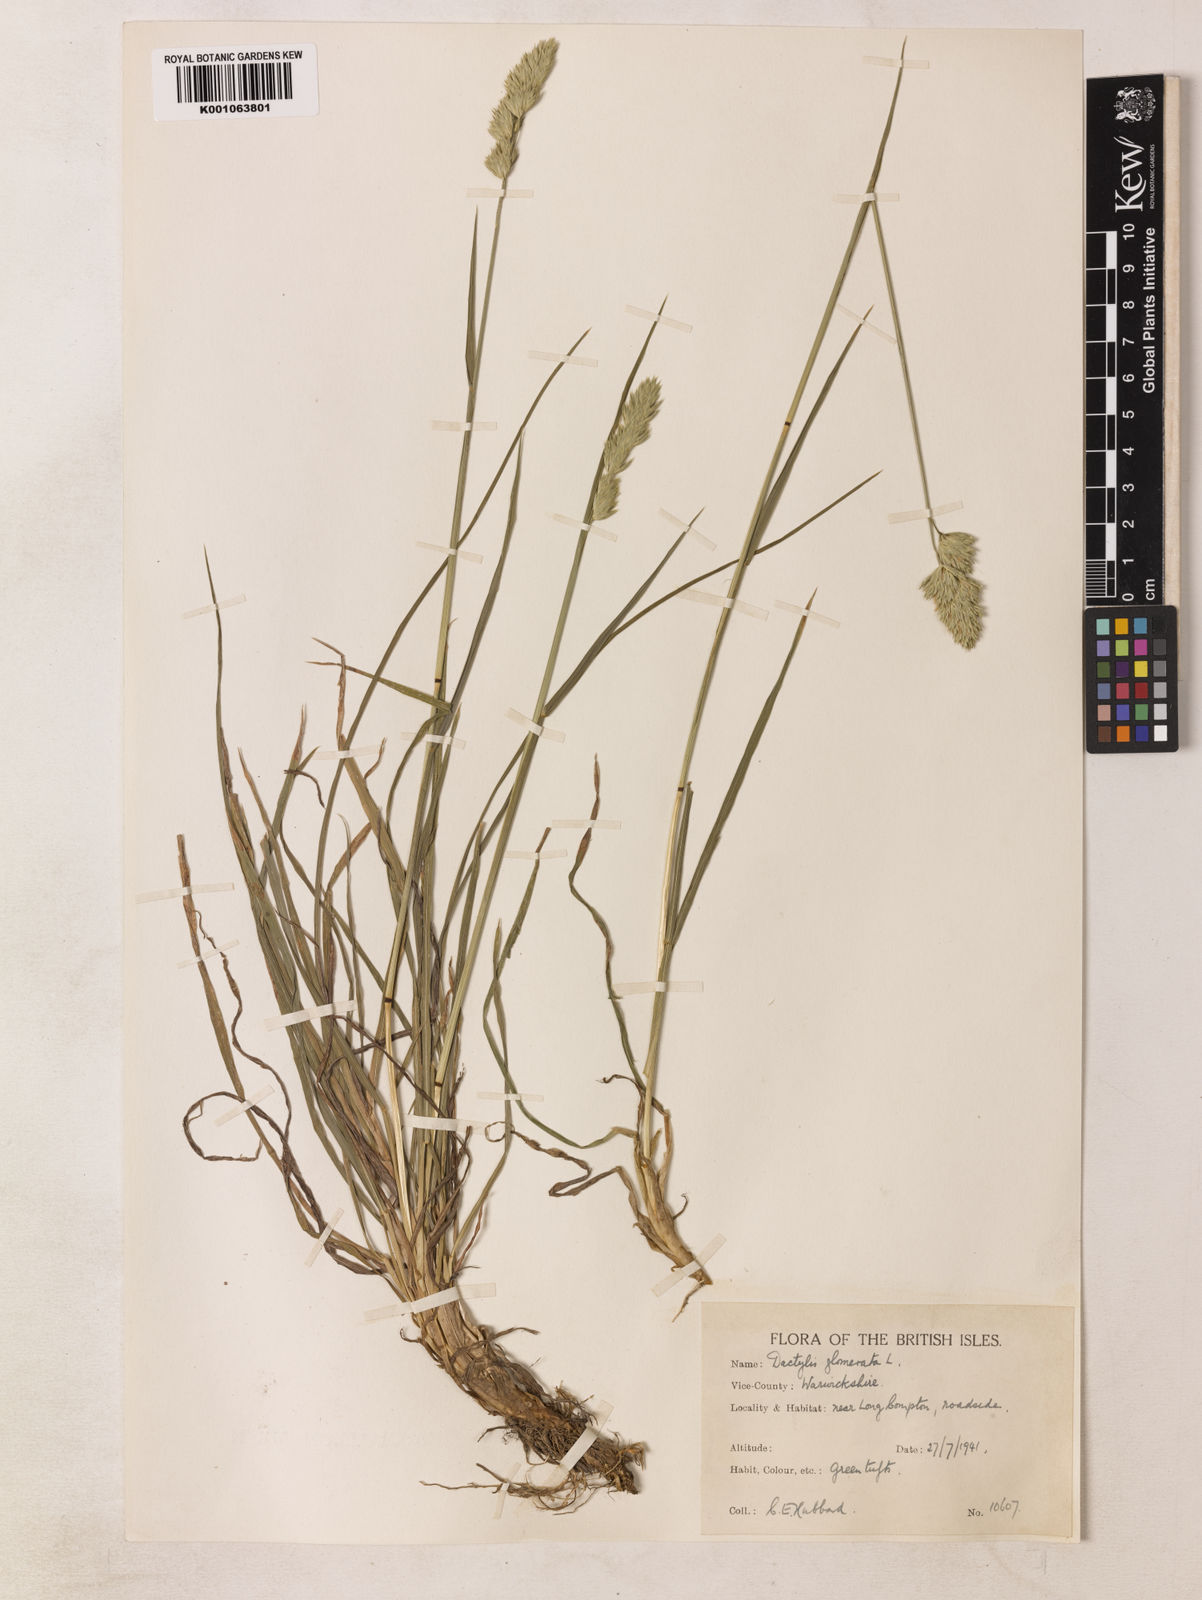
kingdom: Plantae
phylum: Tracheophyta
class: Liliopsida
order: Poales
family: Poaceae
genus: Dactylis
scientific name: Dactylis glomerata
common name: Orchardgrass
